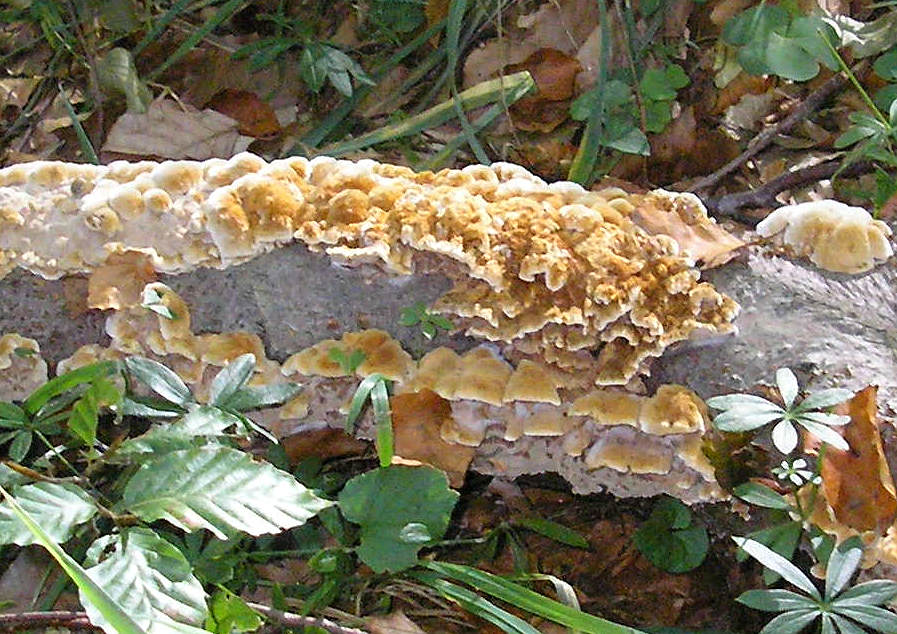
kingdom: Fungi
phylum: Basidiomycota
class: Agaricomycetes
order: Hymenochaetales
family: Hymenochaetaceae
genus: Mensularia
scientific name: Mensularia nodulosa
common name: bøge-spejlporesvamp
